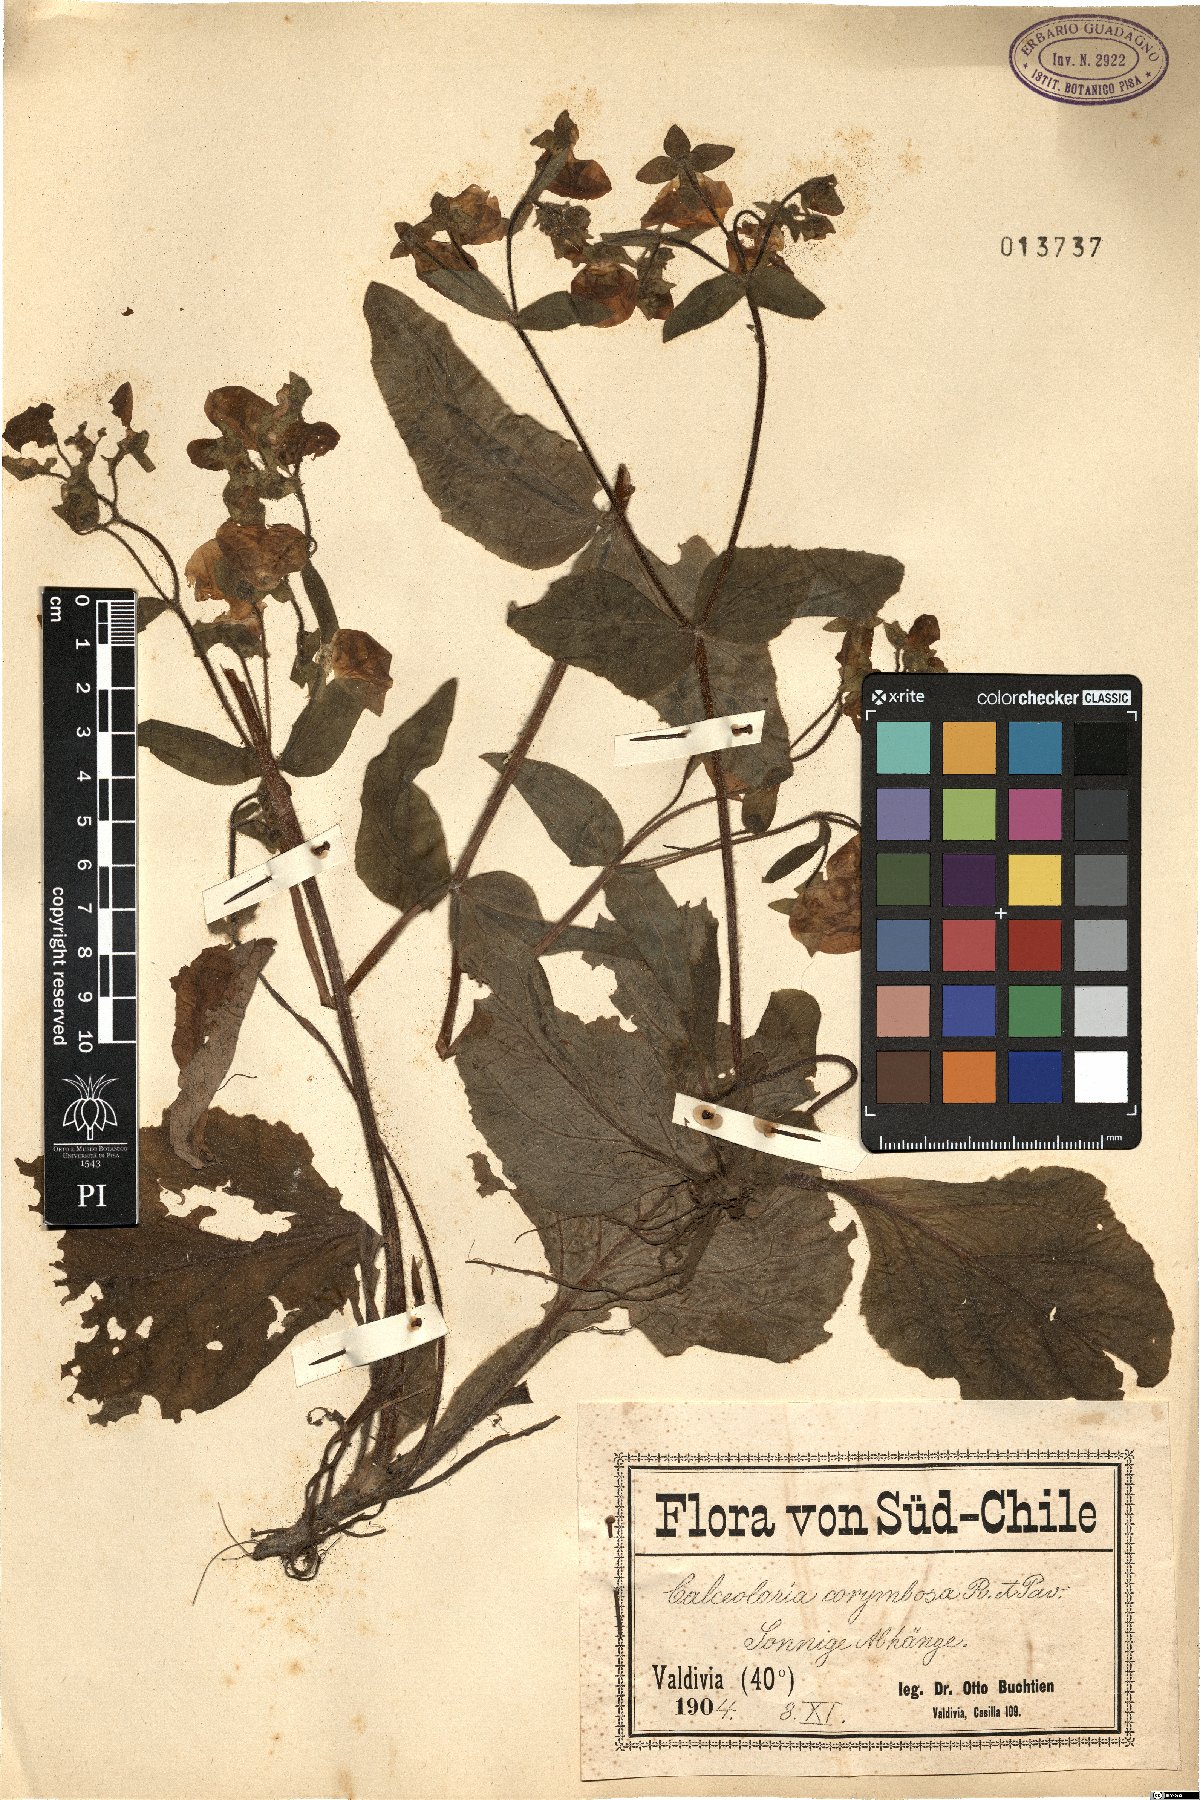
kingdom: Plantae
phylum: Tracheophyta
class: Magnoliopsida
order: Lamiales
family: Calceolariaceae
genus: Calceolaria
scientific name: Calceolaria corymbosa
